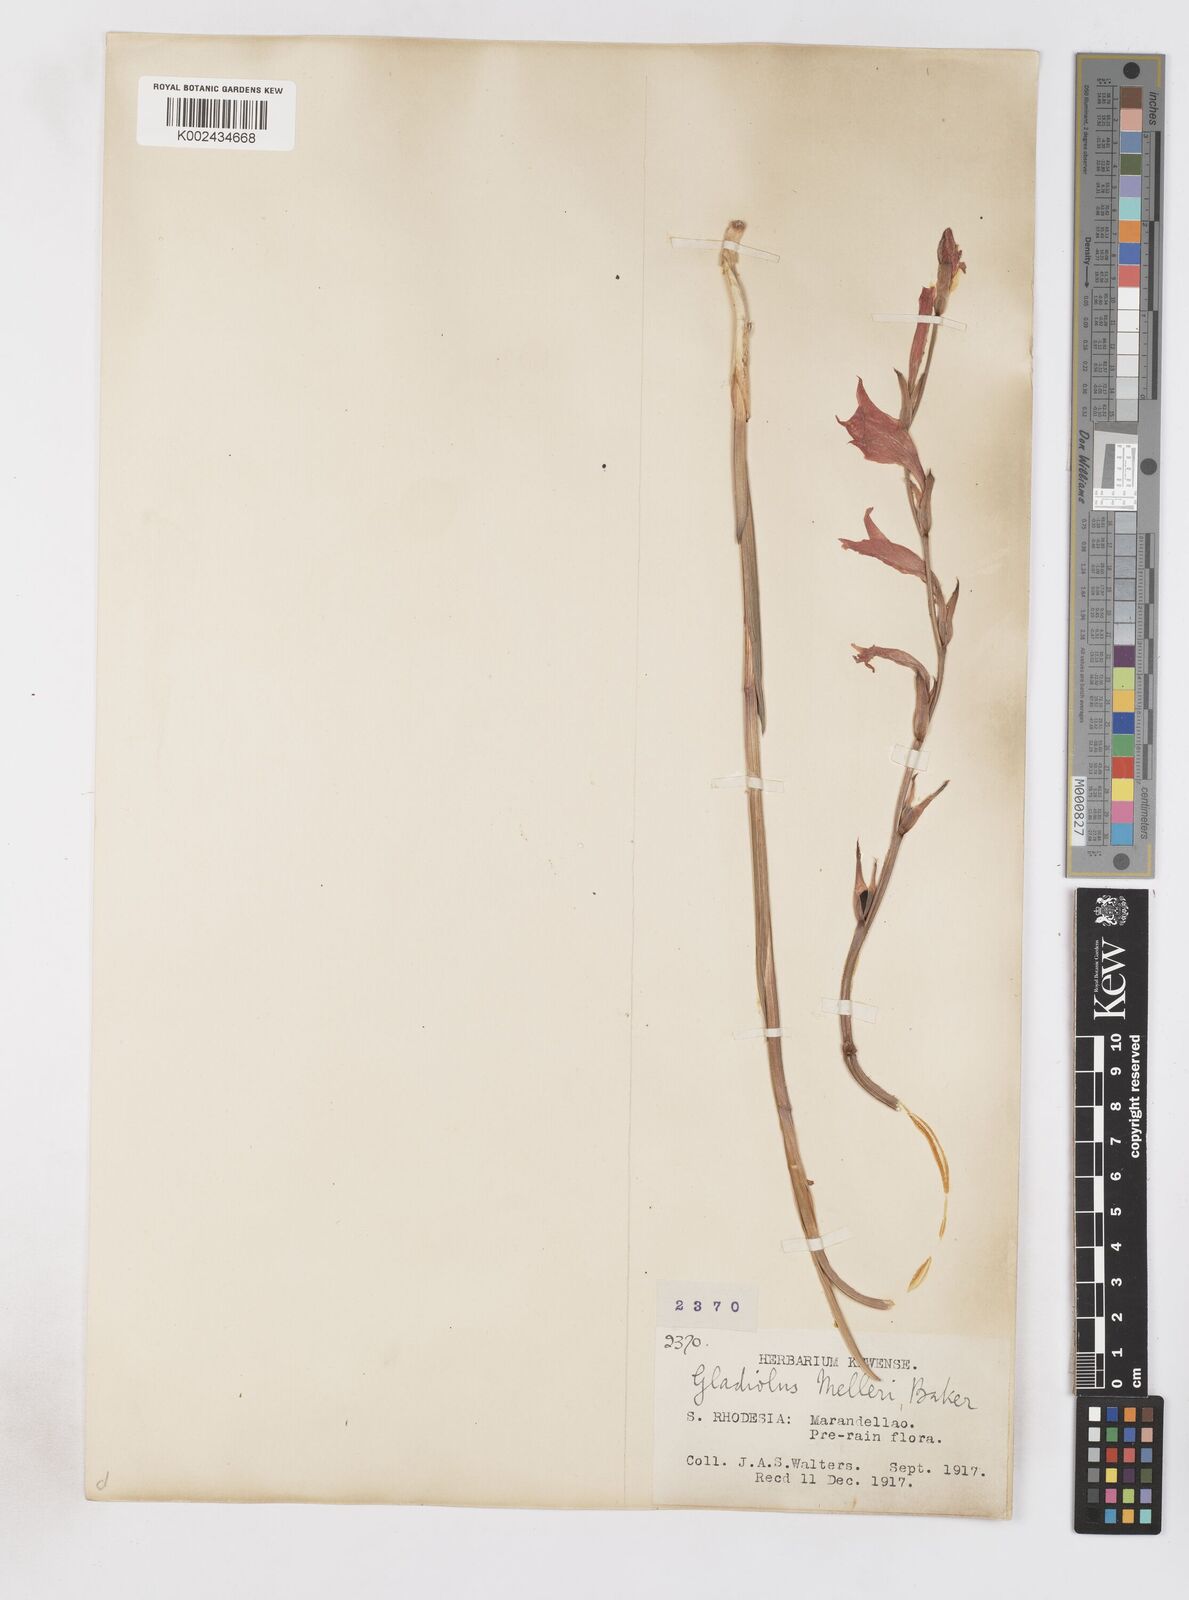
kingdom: Plantae
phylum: Tracheophyta
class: Liliopsida
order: Asparagales
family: Iridaceae
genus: Gladiolus
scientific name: Gladiolus melleri
